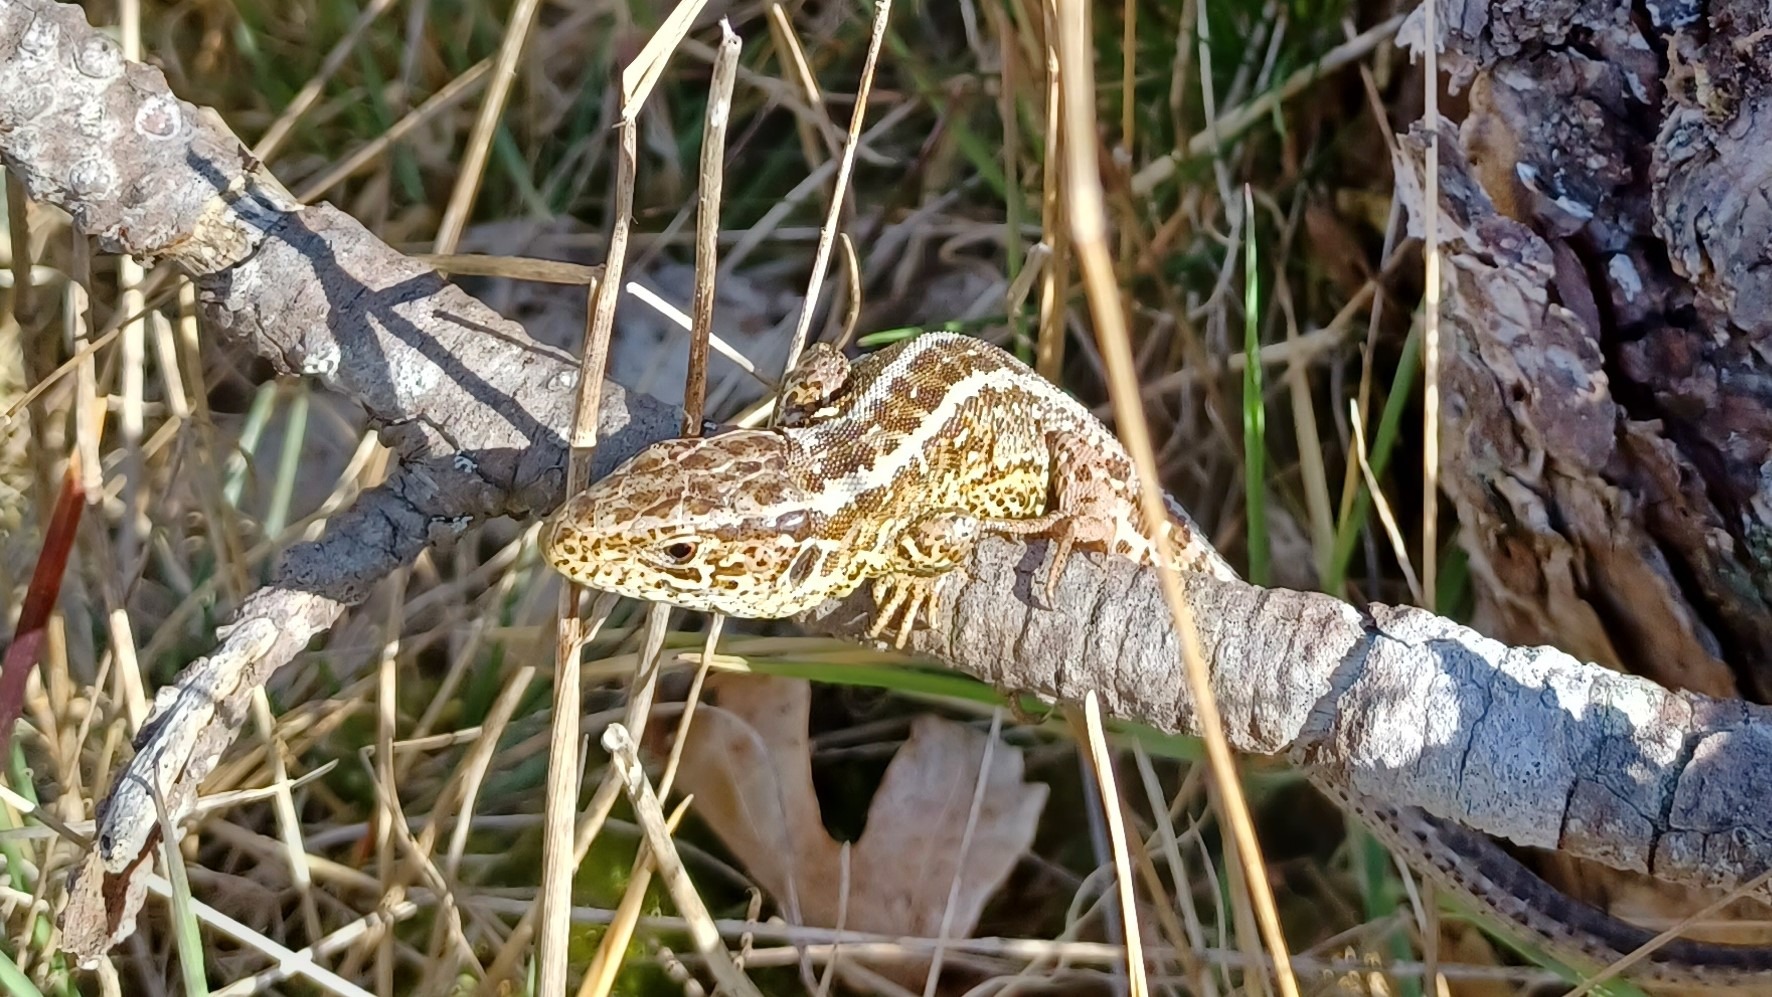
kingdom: Animalia
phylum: Chordata
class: Squamata
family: Lacertidae
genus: Lacerta
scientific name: Lacerta agilis
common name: Markfirben
